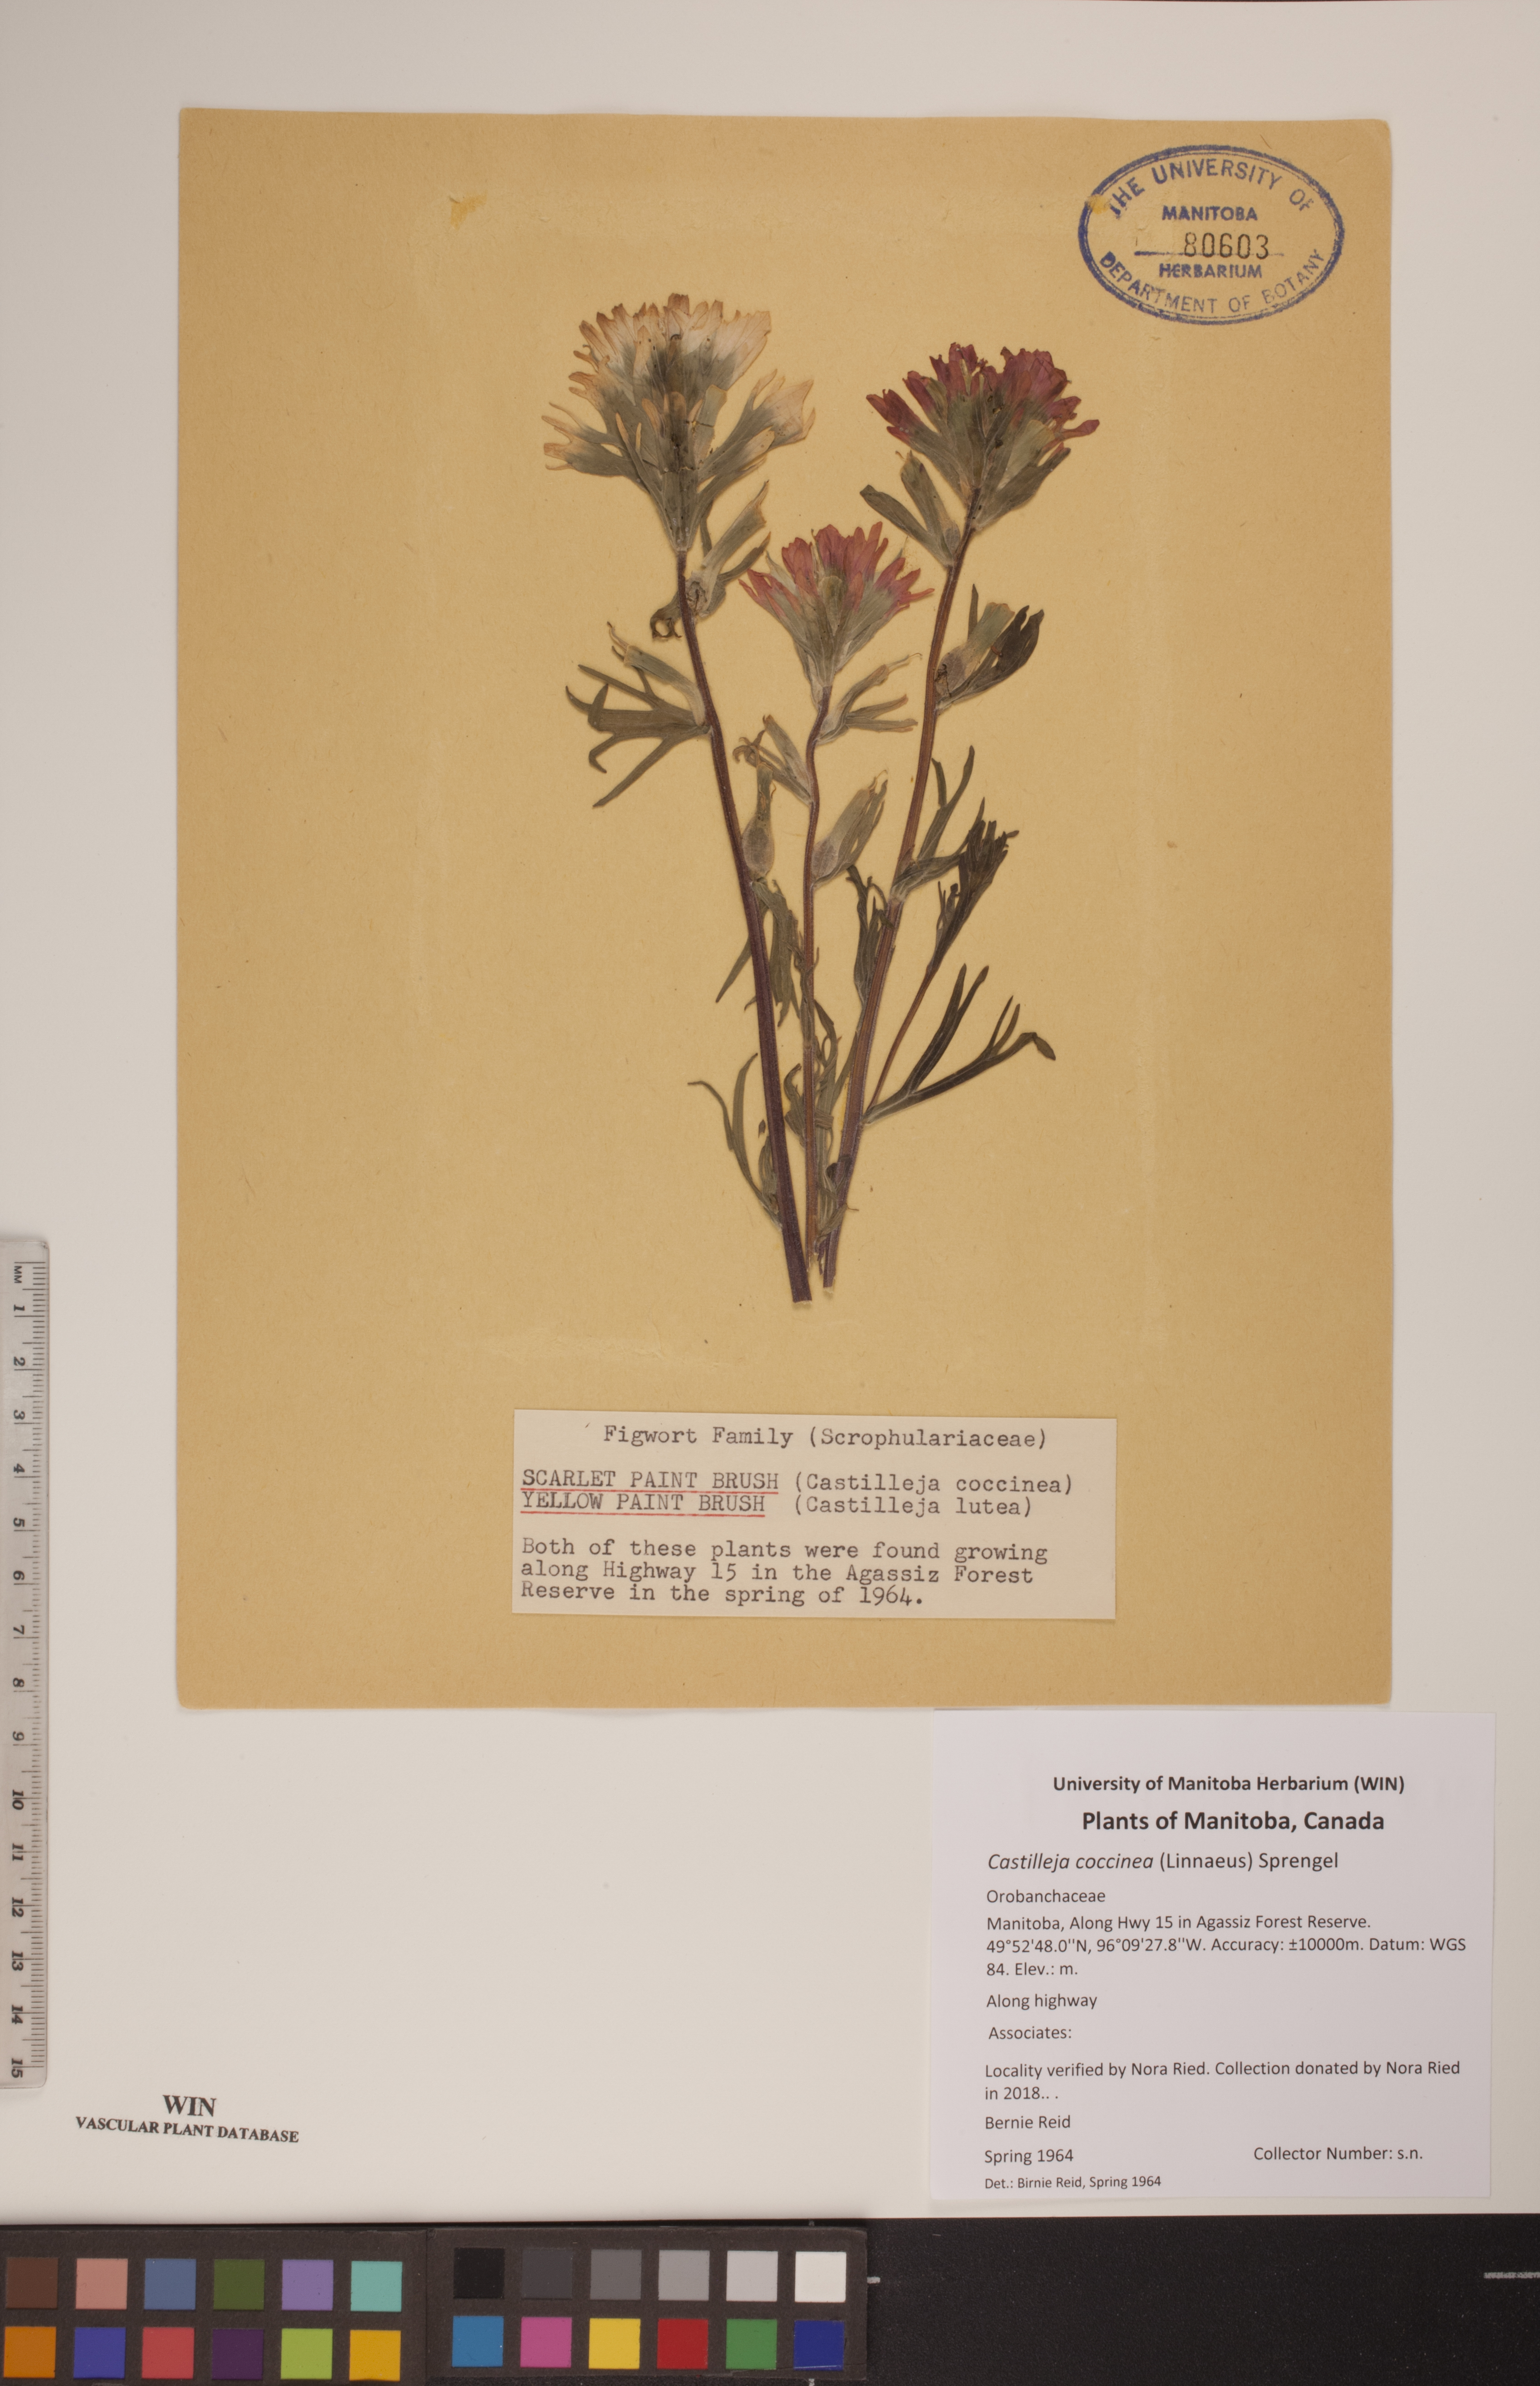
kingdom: Plantae
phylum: Tracheophyta
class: Magnoliopsida
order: Lamiales
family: Orobanchaceae
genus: Castilleja
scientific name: Castilleja coccinea
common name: Scarlet paintbrush
